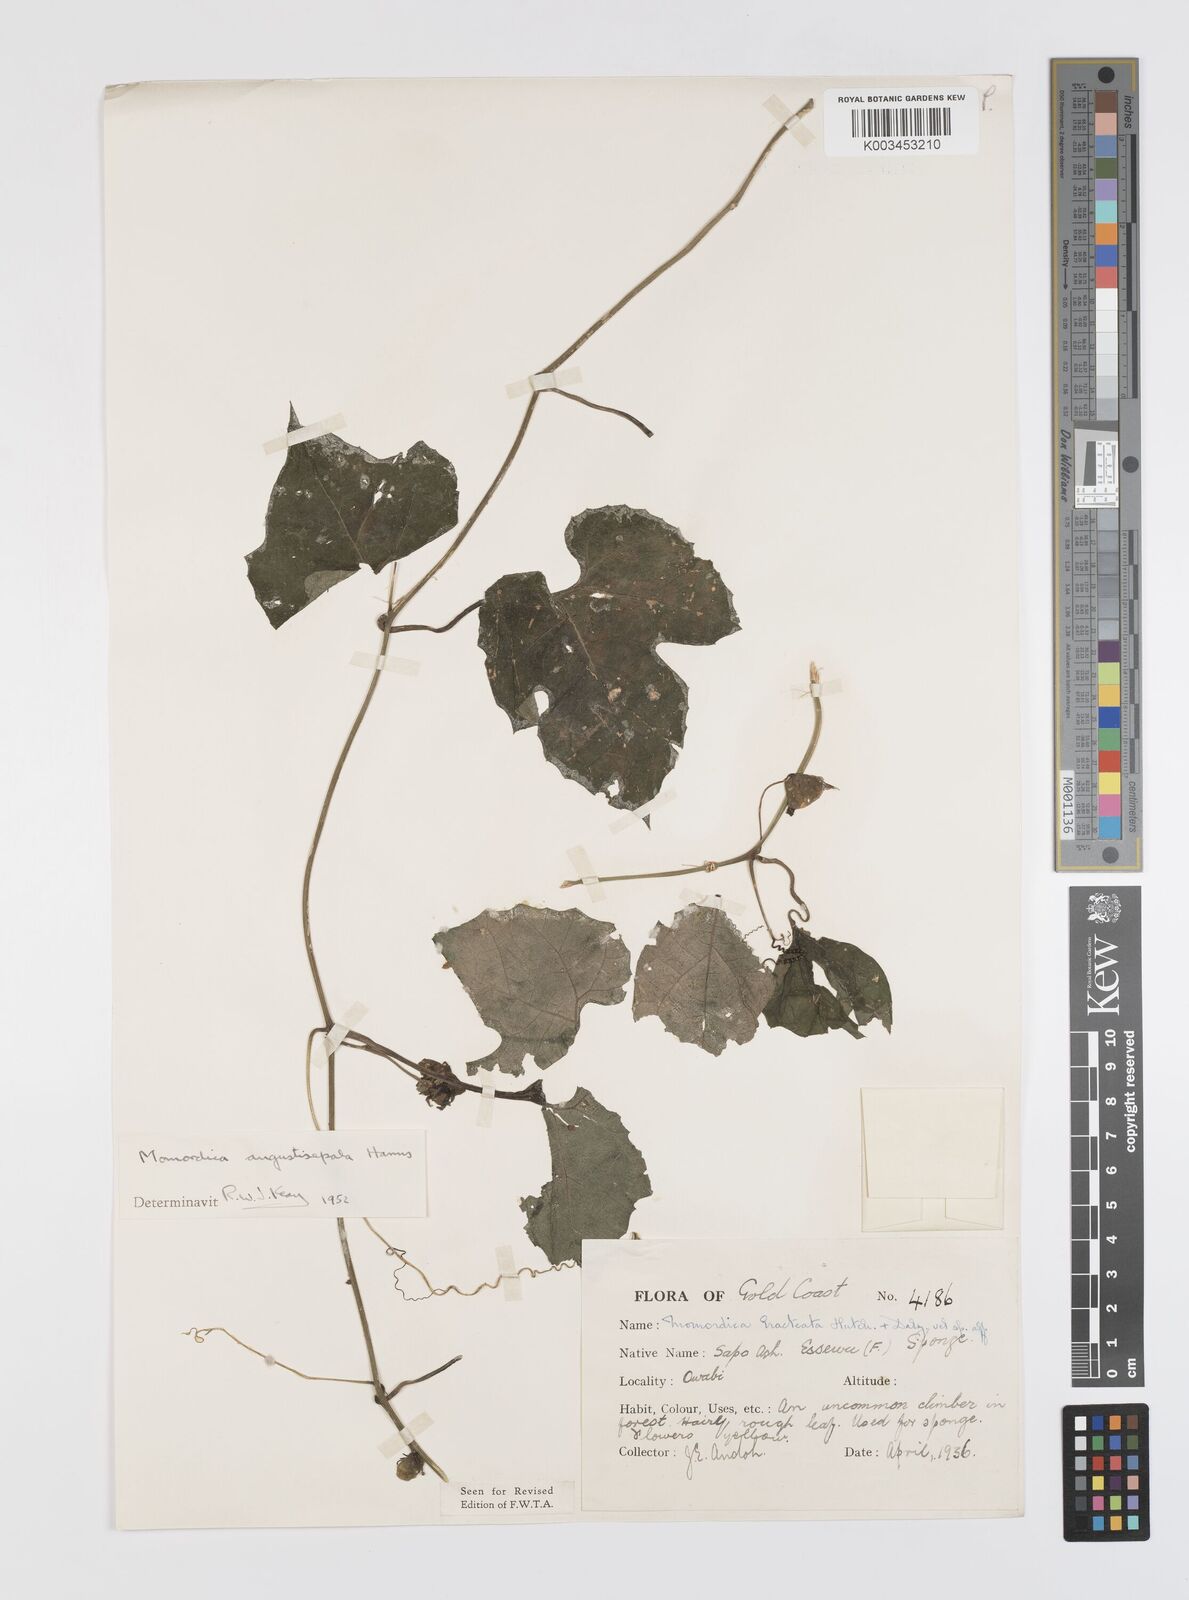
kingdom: Plantae
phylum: Tracheophyta
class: Magnoliopsida
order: Cucurbitales
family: Cucurbitaceae
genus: Momordica
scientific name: Momordica angustisepala
